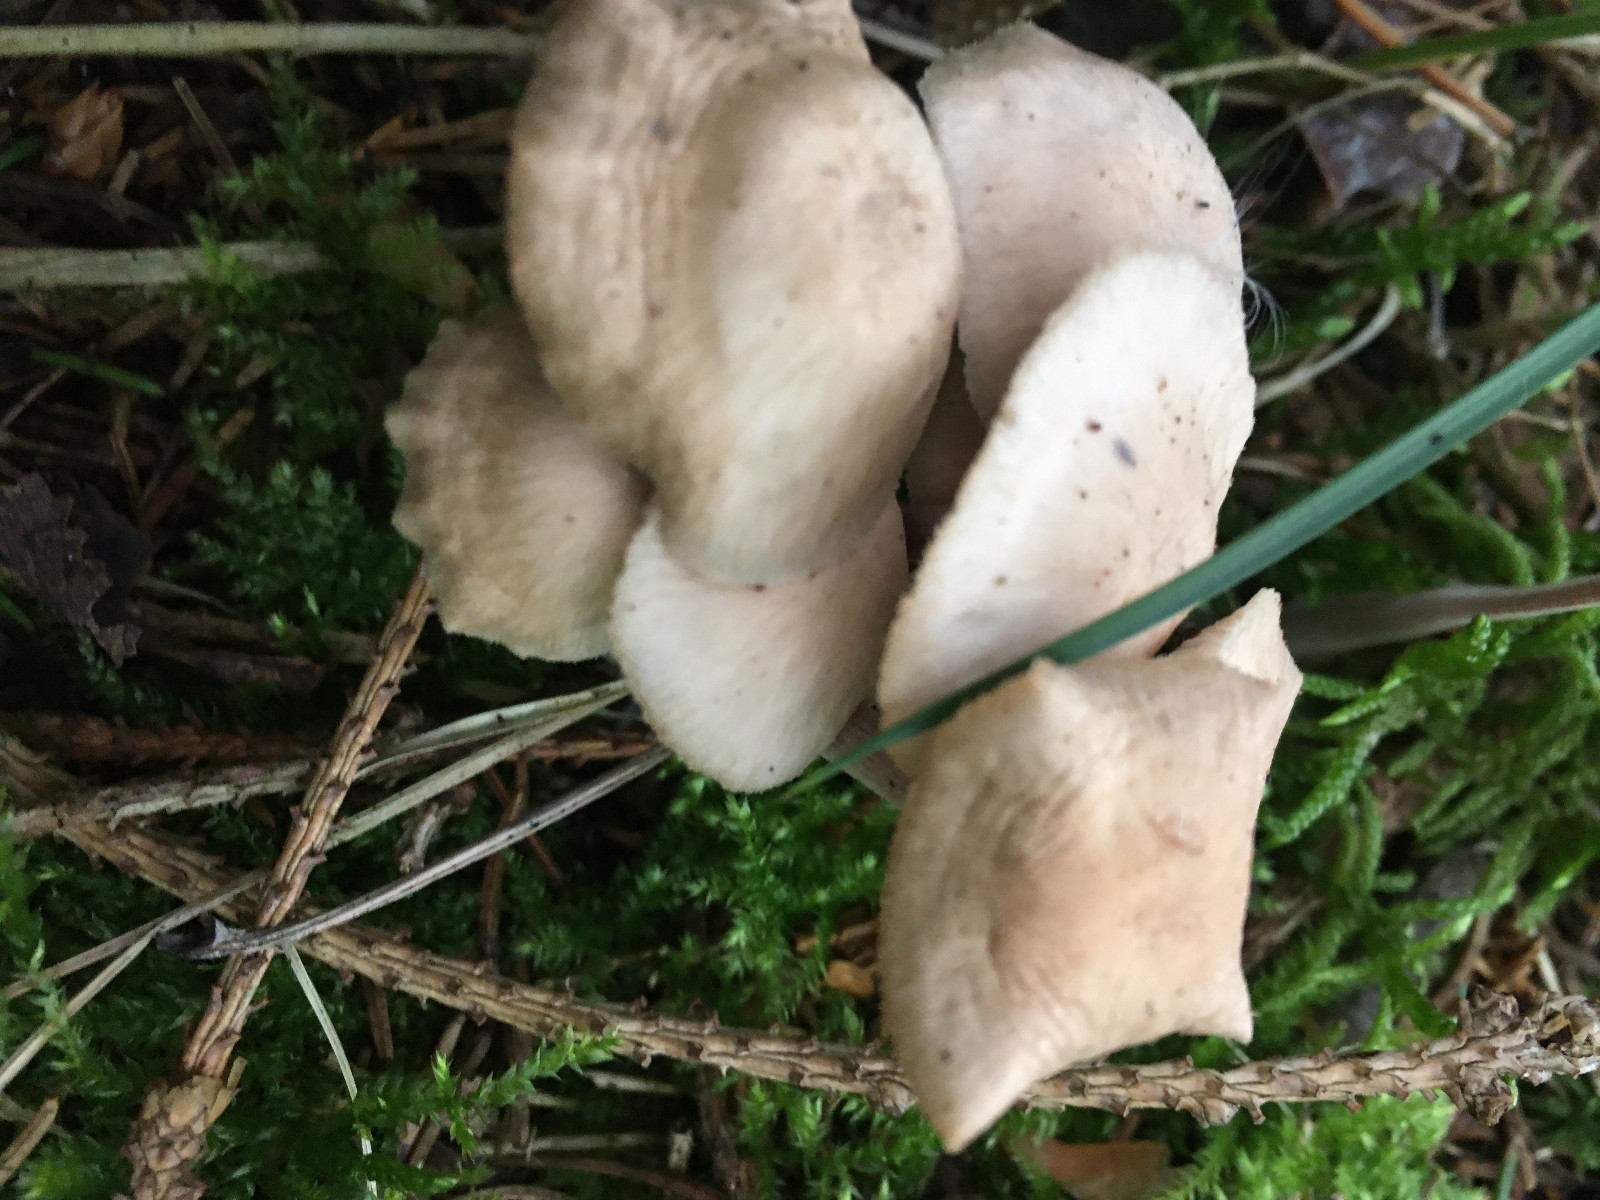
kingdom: Fungi
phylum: Basidiomycota
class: Agaricomycetes
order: Agaricales
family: Omphalotaceae
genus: Collybiopsis
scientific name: Collybiopsis confluens
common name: knippe-fladhat
